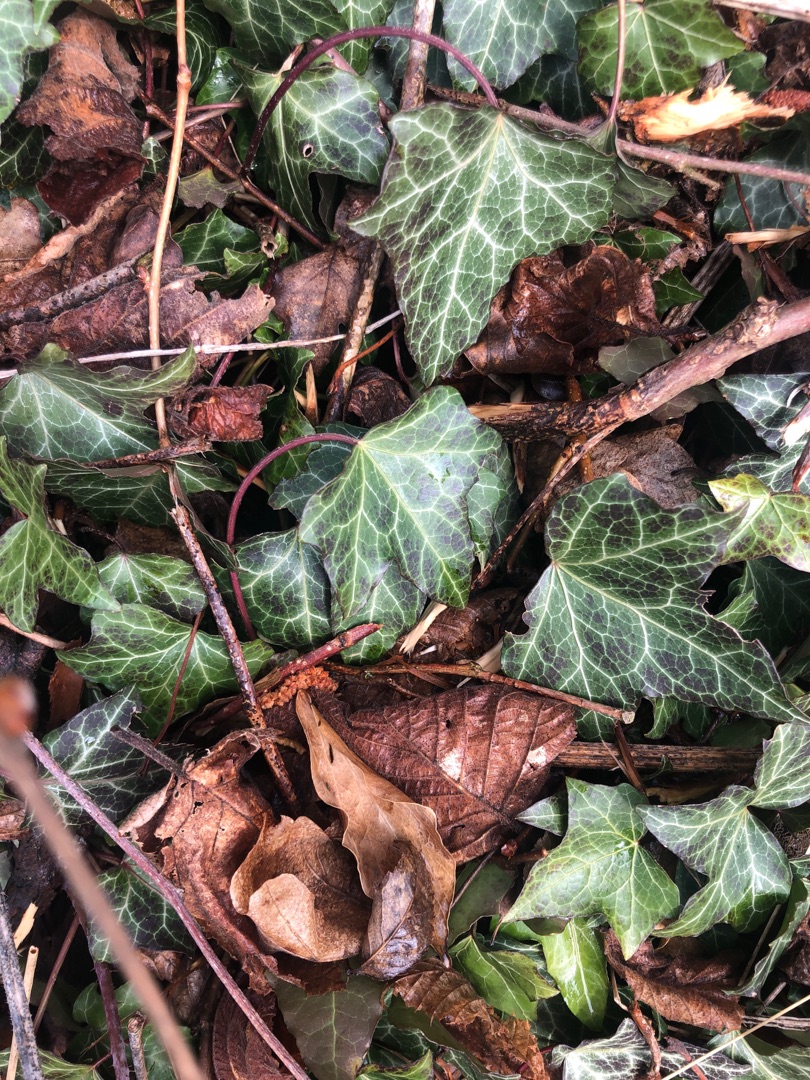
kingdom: Plantae
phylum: Tracheophyta
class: Magnoliopsida
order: Apiales
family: Araliaceae
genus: Hedera
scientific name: Hedera helix
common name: Vedbend
